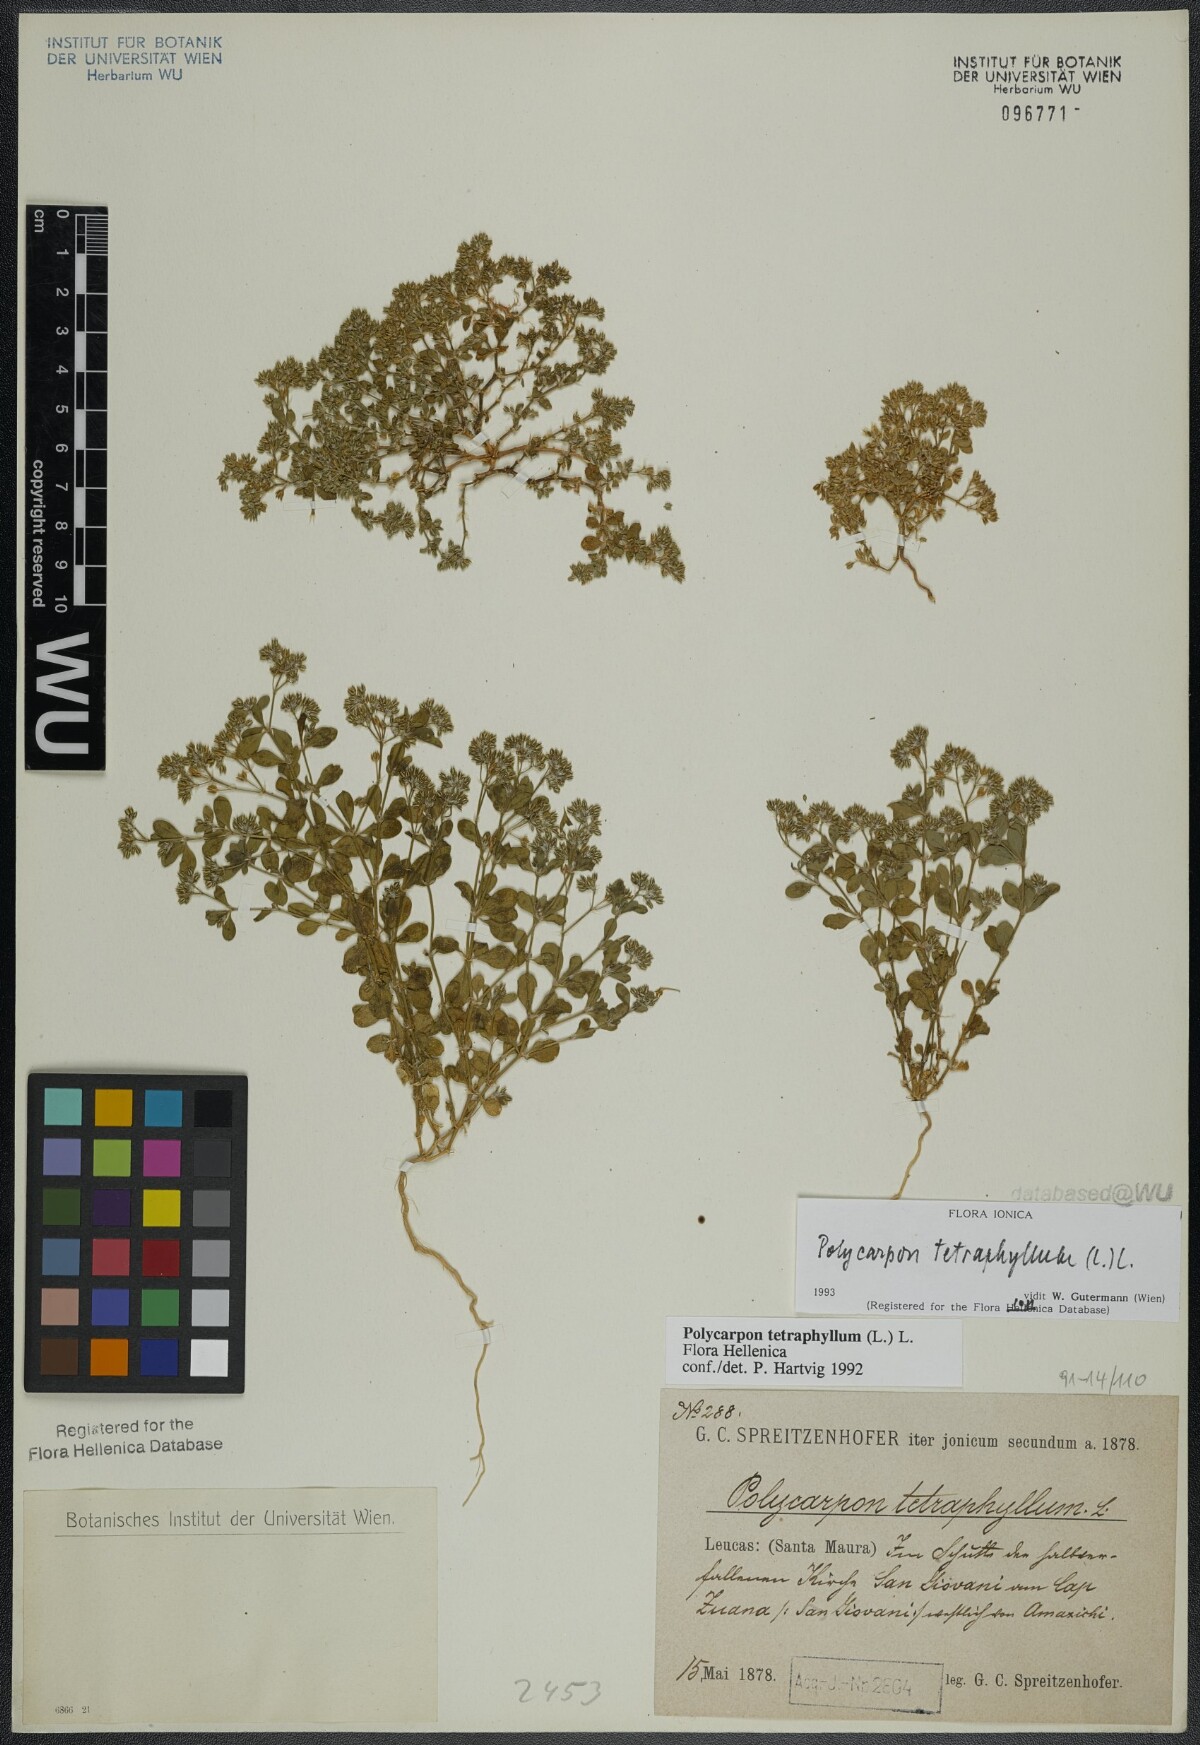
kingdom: Plantae
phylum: Tracheophyta
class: Magnoliopsida
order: Caryophyllales
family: Caryophyllaceae
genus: Polycarpon
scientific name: Polycarpon tetraphyllum
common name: Four-leaved all-seed
